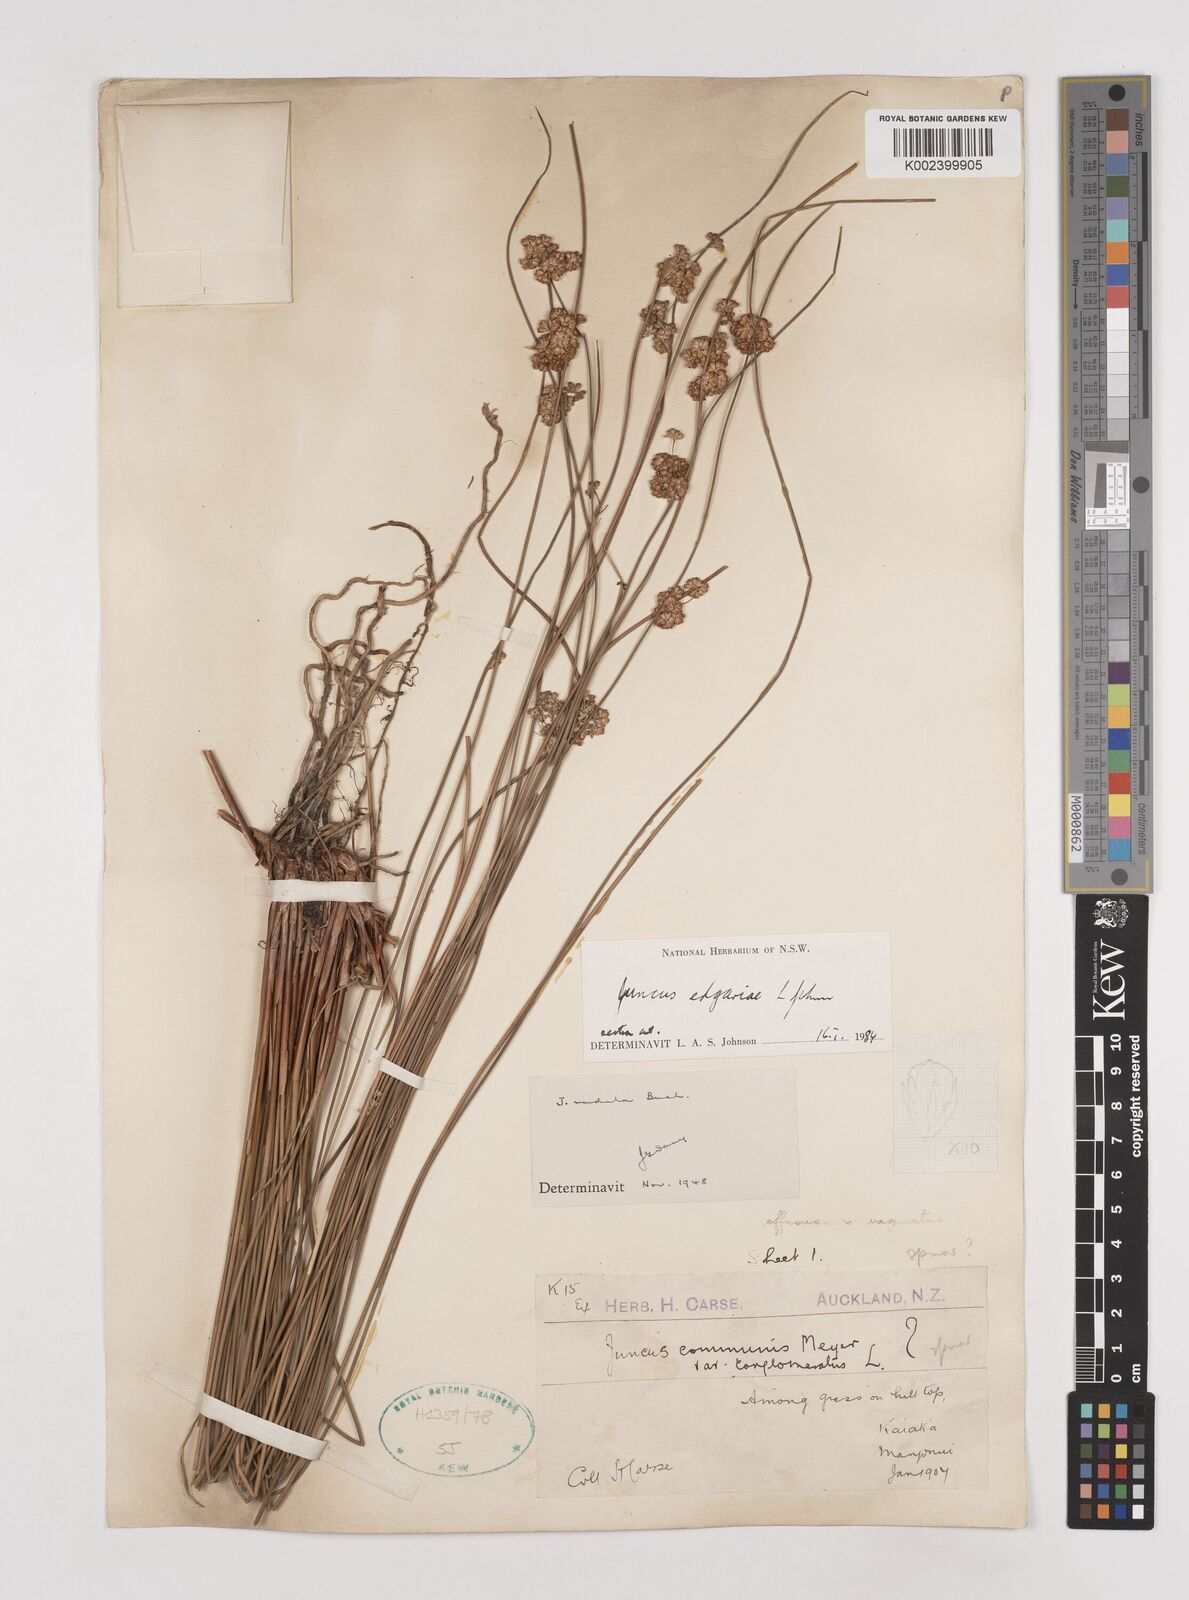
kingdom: Plantae
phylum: Tracheophyta
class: Liliopsida
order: Poales
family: Juncaceae
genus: Juncus
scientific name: Juncus edgariae
